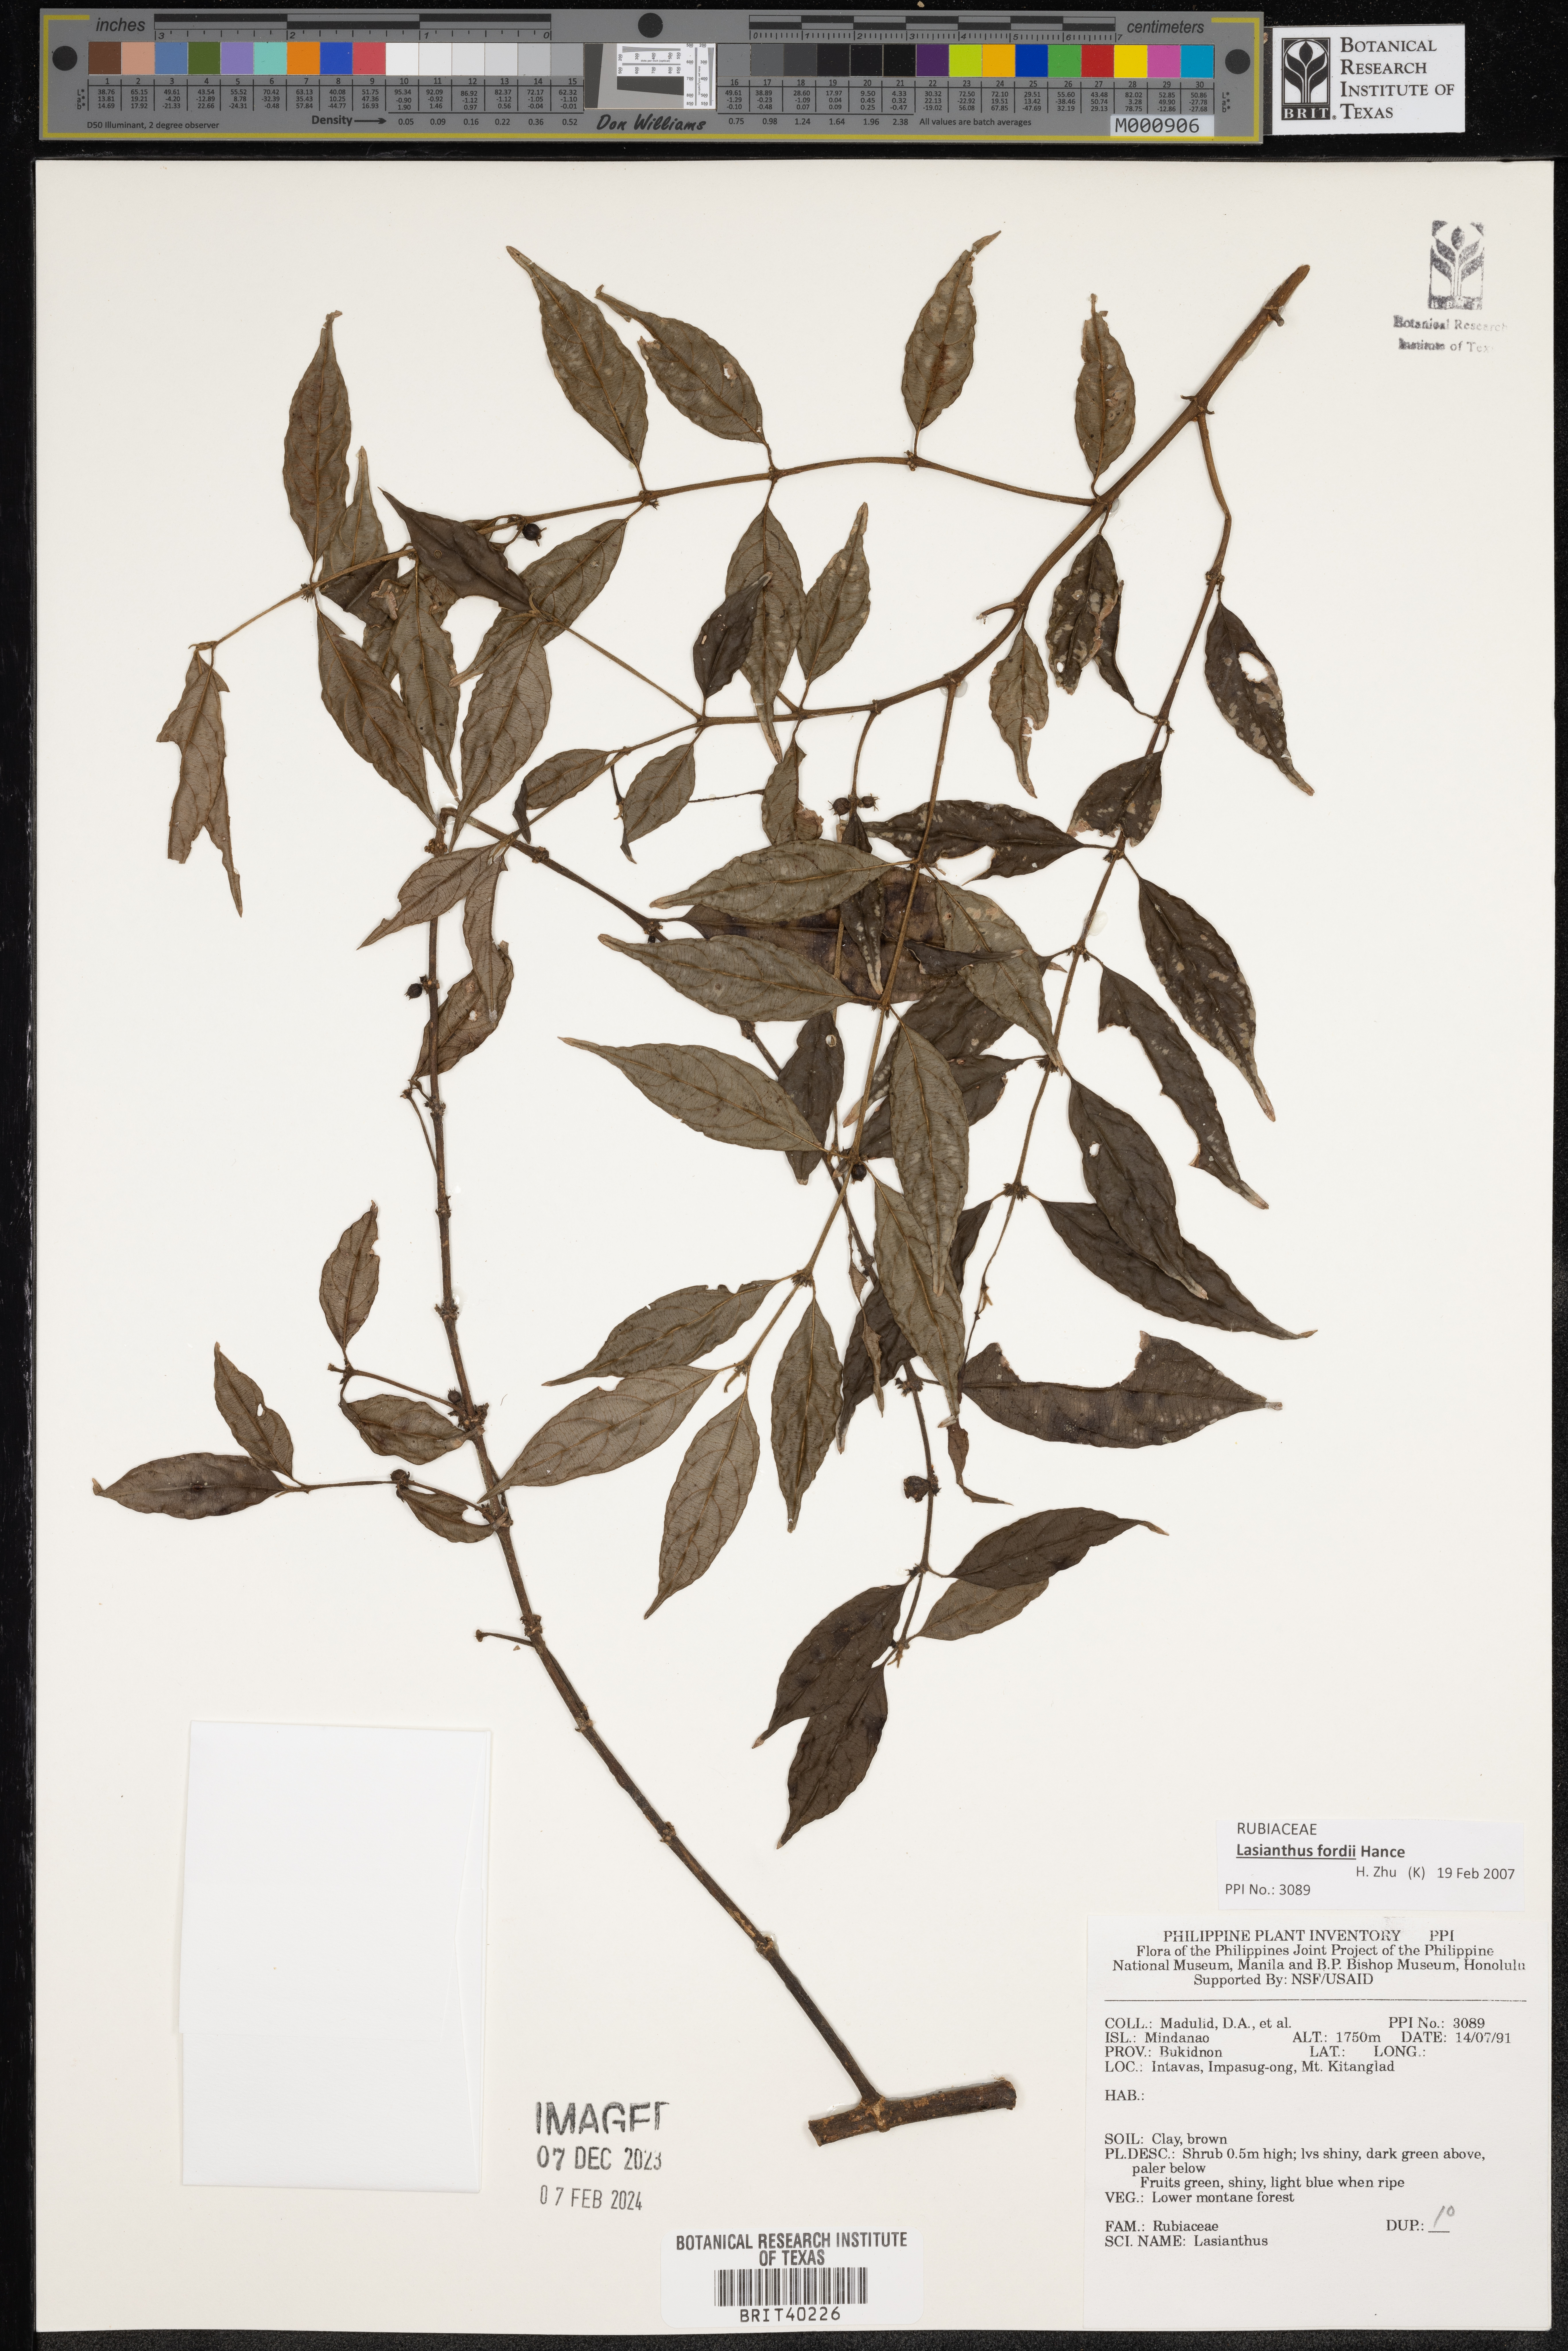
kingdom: Plantae
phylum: Tracheophyta
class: Magnoliopsida
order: Gentianales
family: Rubiaceae
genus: Lasianthus
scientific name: Lasianthus
